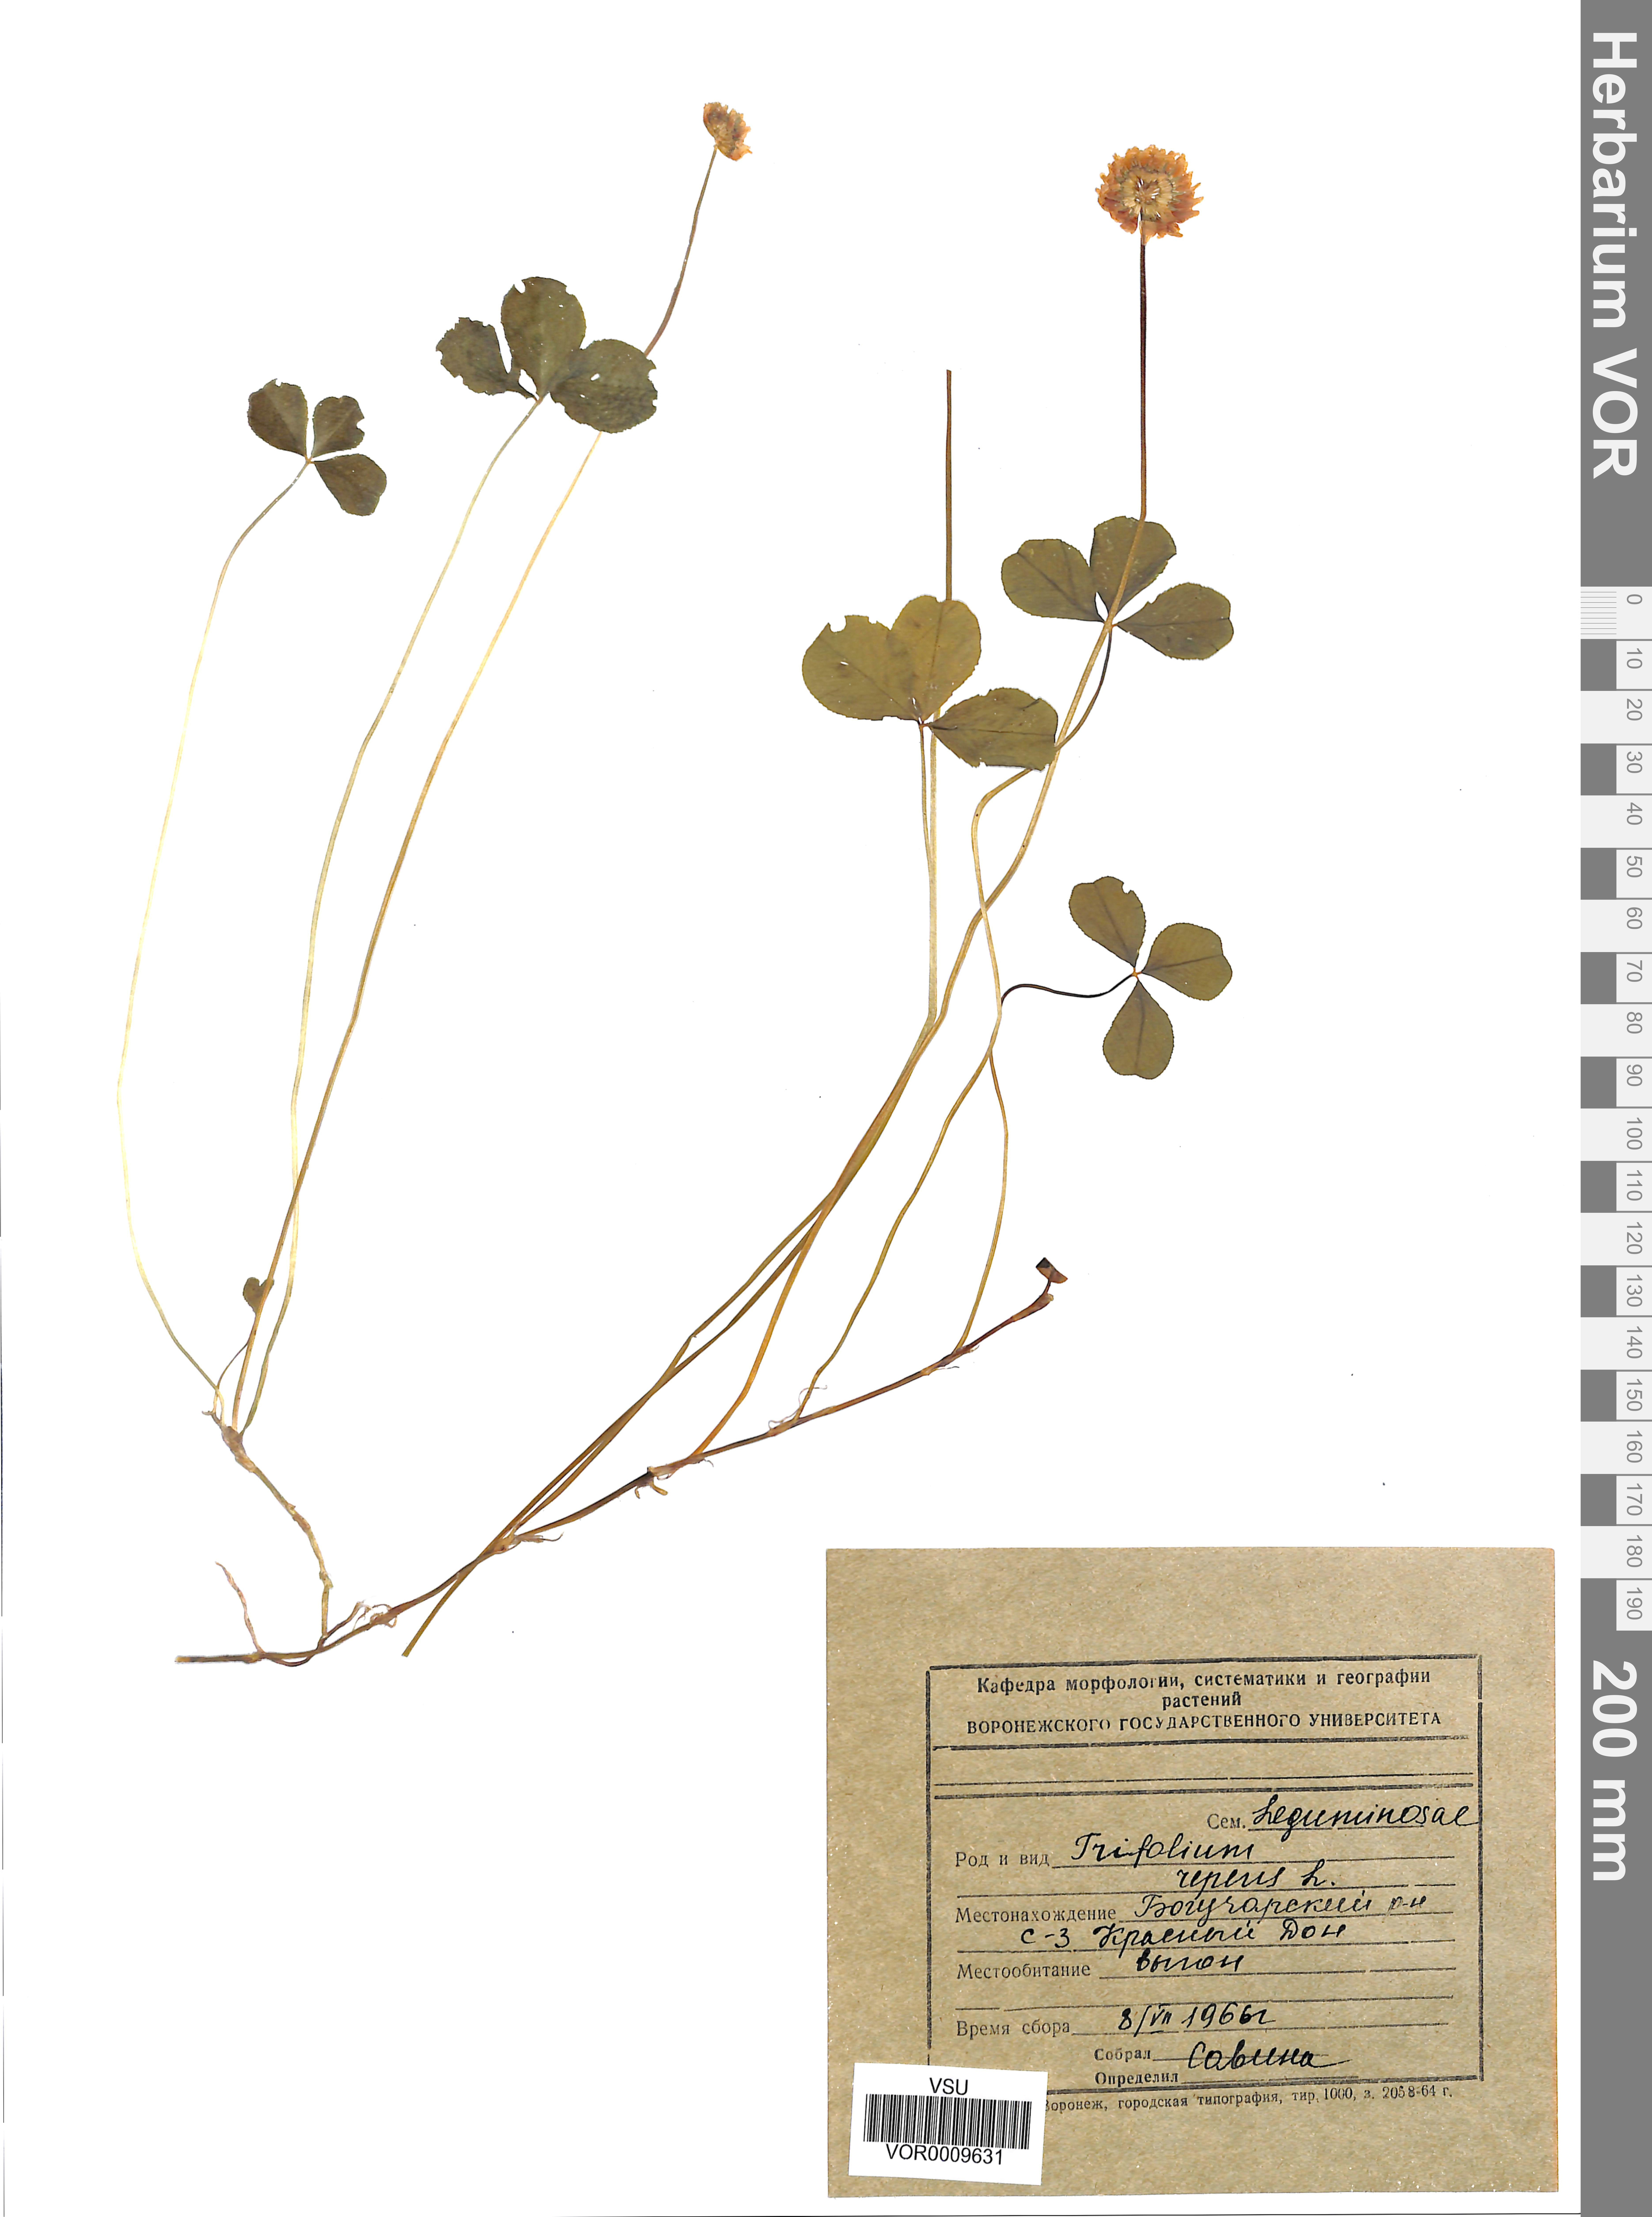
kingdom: Plantae
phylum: Tracheophyta
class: Magnoliopsida
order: Fabales
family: Fabaceae
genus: Trifolium
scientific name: Trifolium repens
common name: White clover
